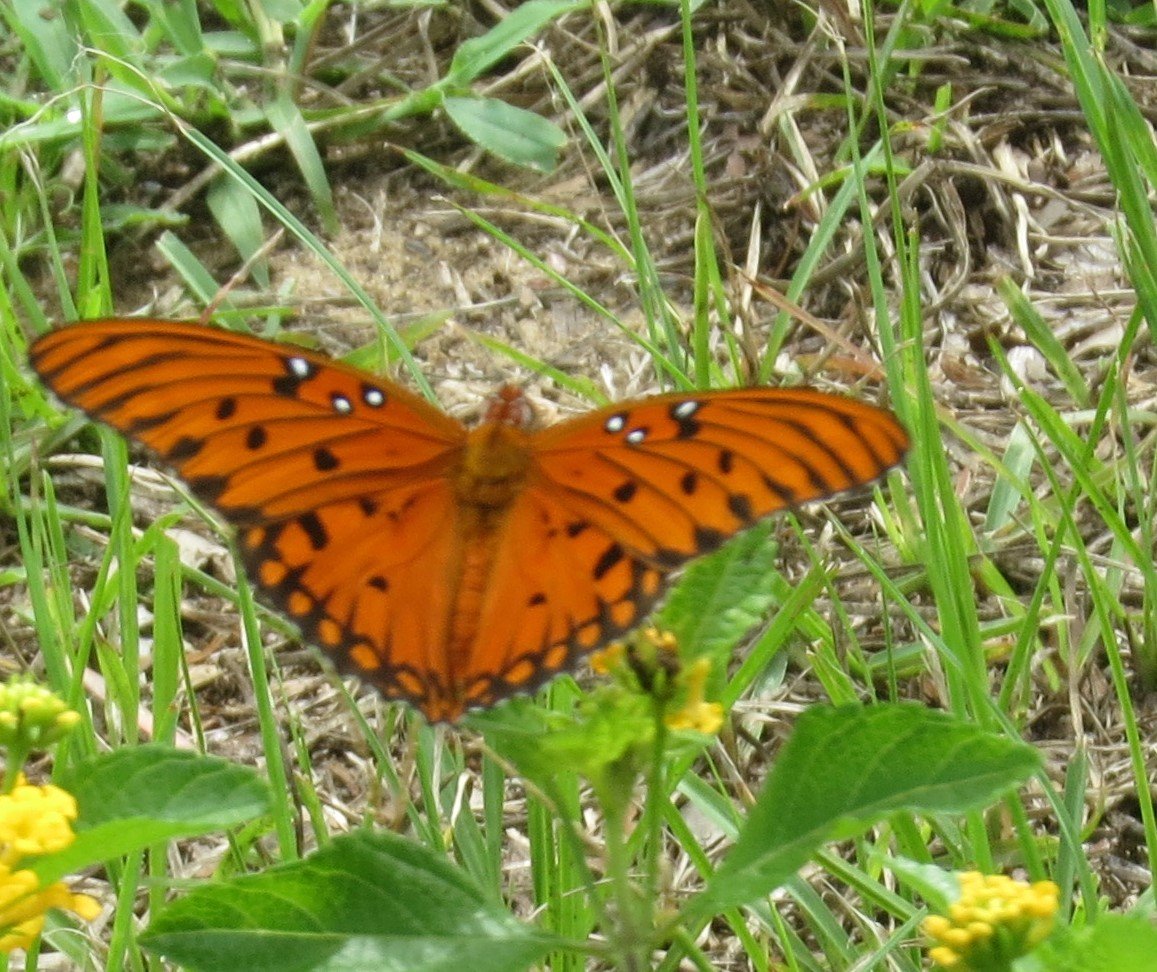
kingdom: Animalia
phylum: Arthropoda
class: Insecta
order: Lepidoptera
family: Nymphalidae
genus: Dione
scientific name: Dione vanillae
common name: Gulf Fritillary
